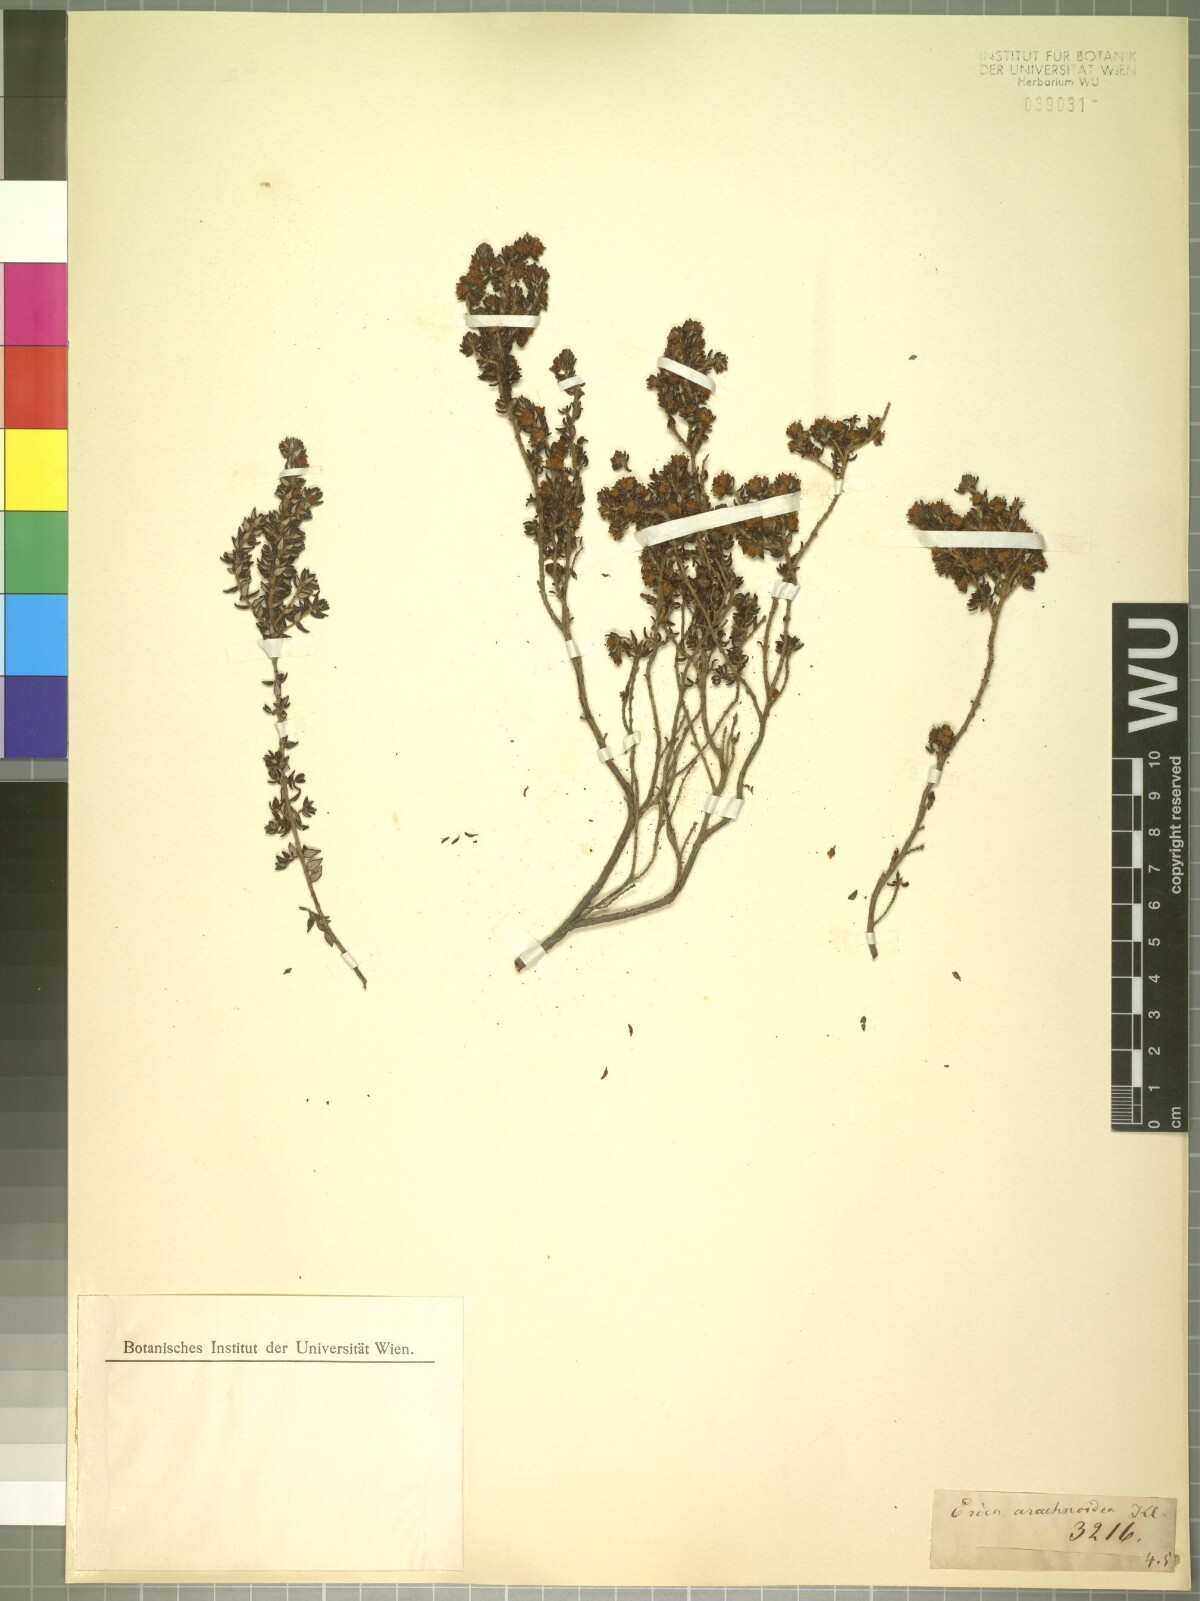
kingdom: Plantae
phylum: Tracheophyta
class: Magnoliopsida
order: Ericales
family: Ericaceae
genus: Erica
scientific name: Erica hispidula
